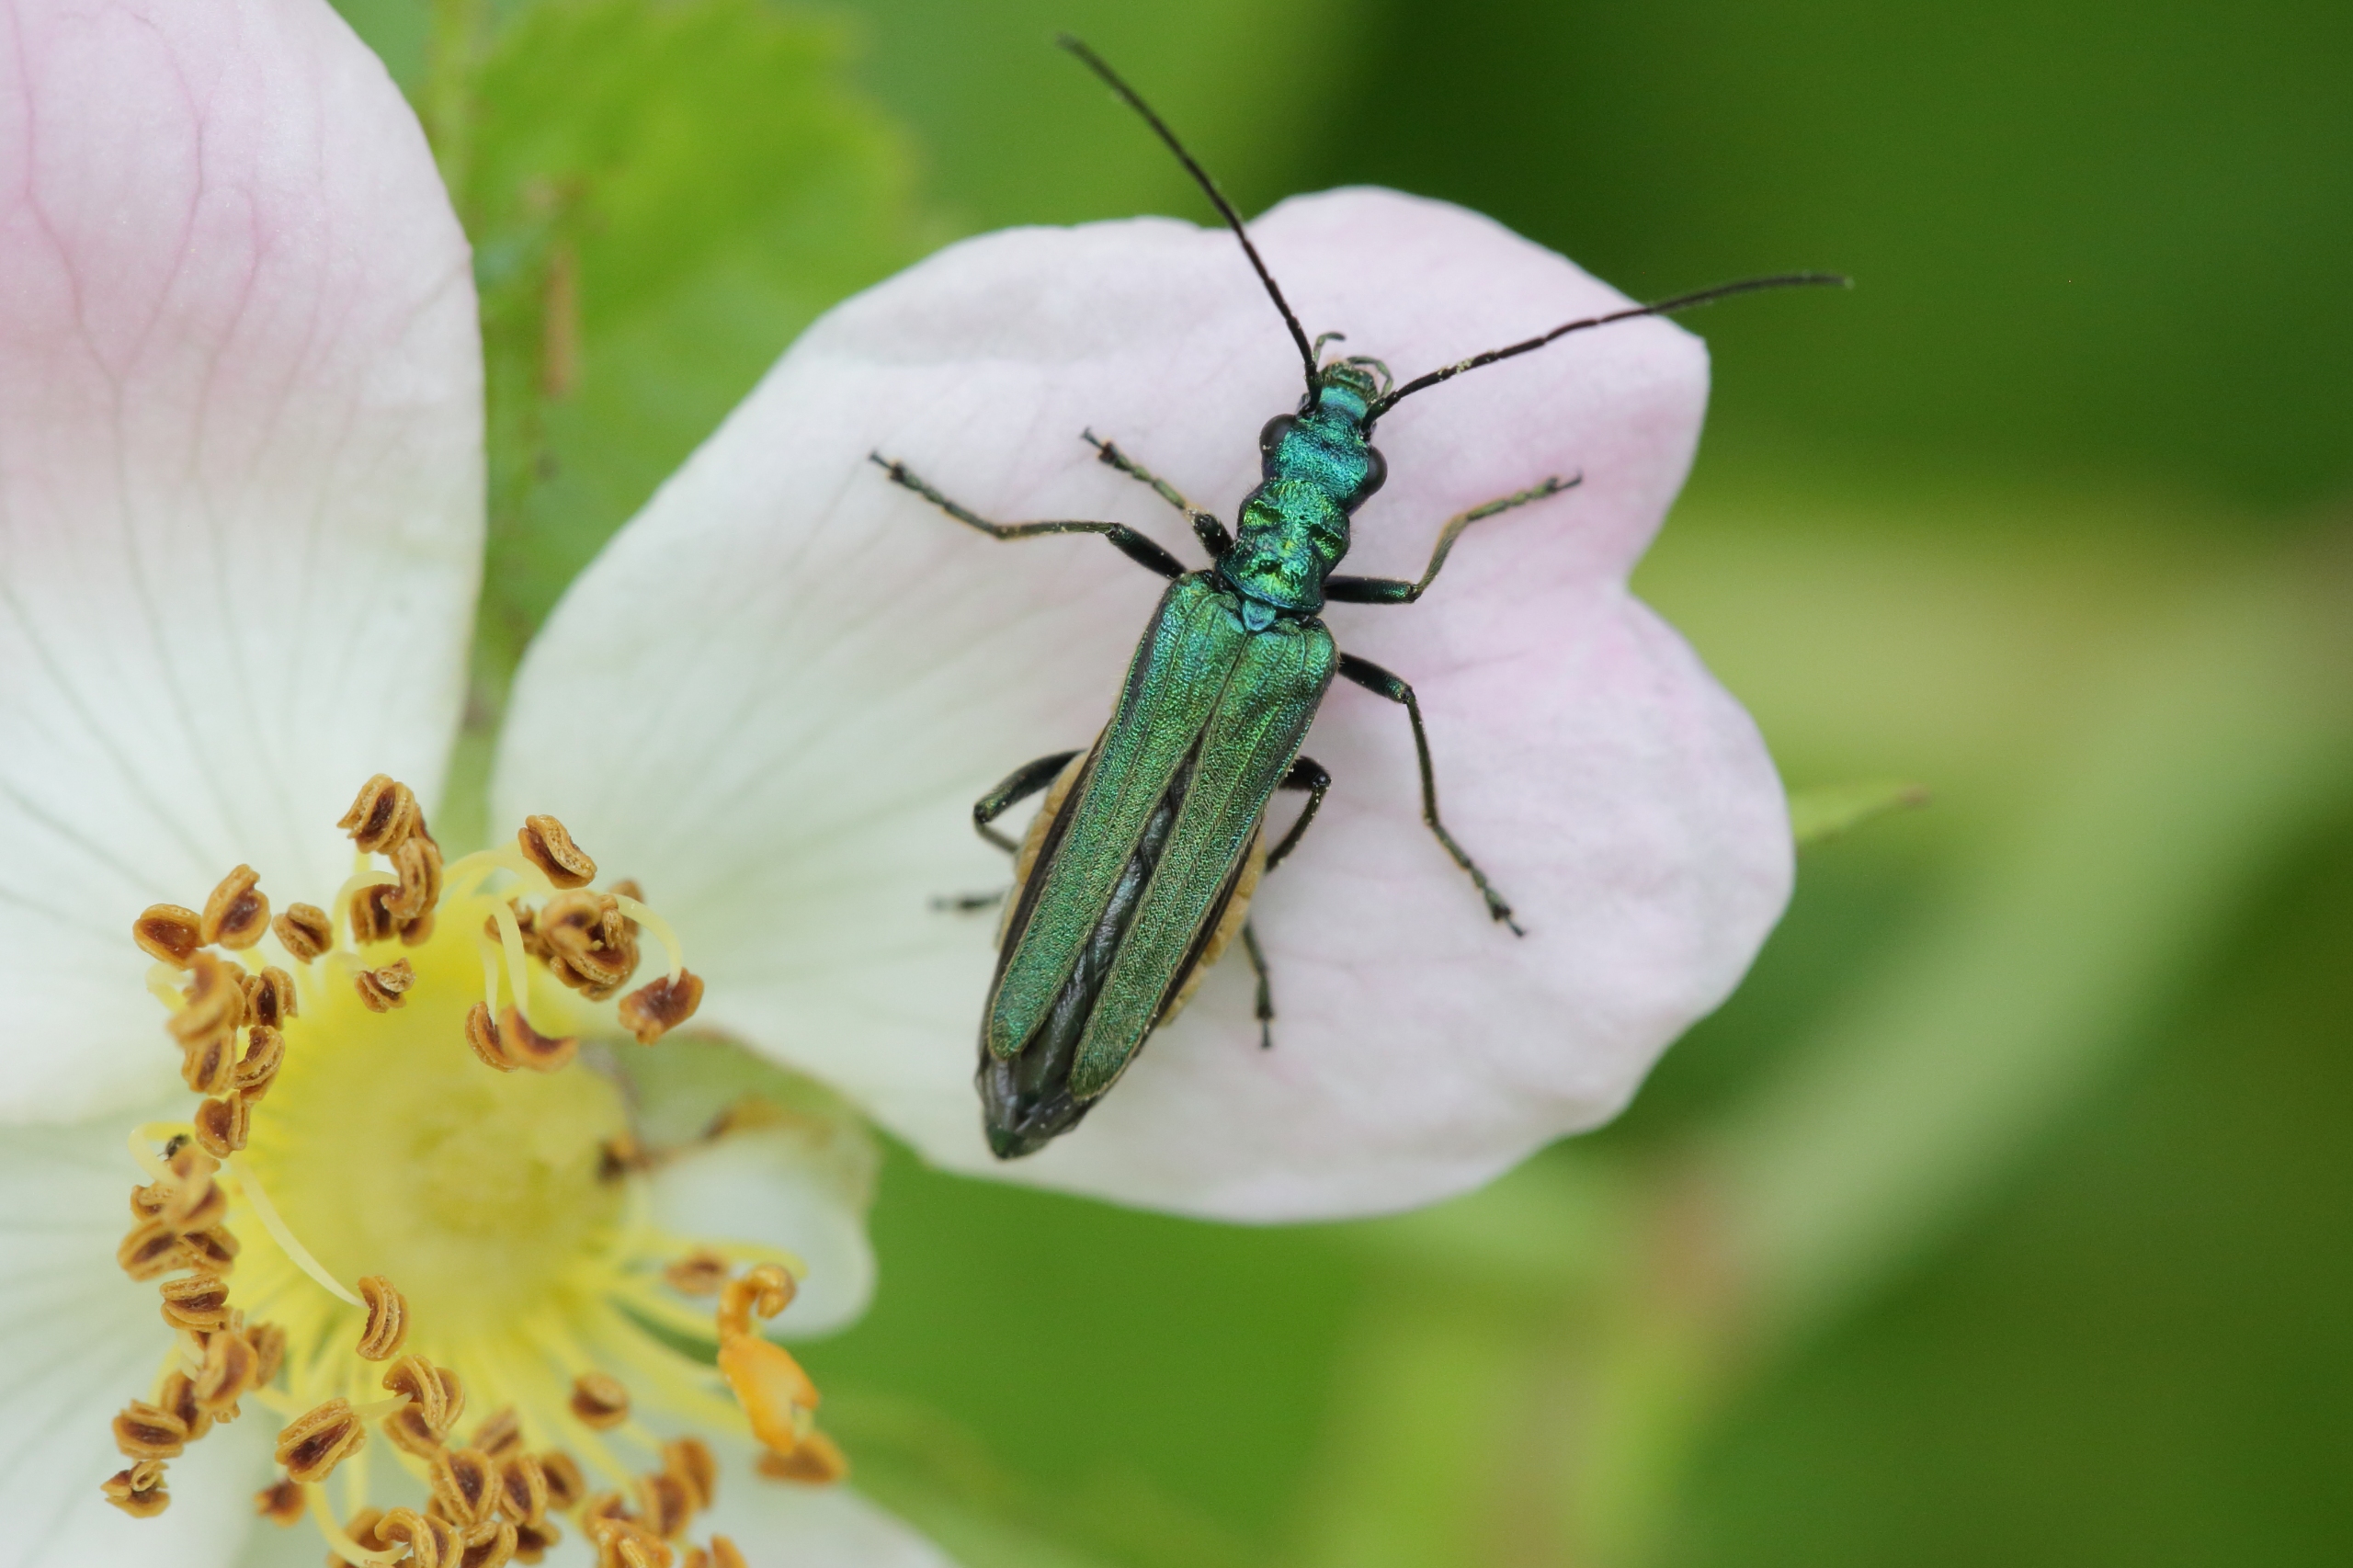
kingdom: Animalia
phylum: Arthropoda
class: Insecta
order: Coleoptera
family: Oedemeridae
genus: Oedemera
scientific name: Oedemera nobilis
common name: Tyklårssolbille
